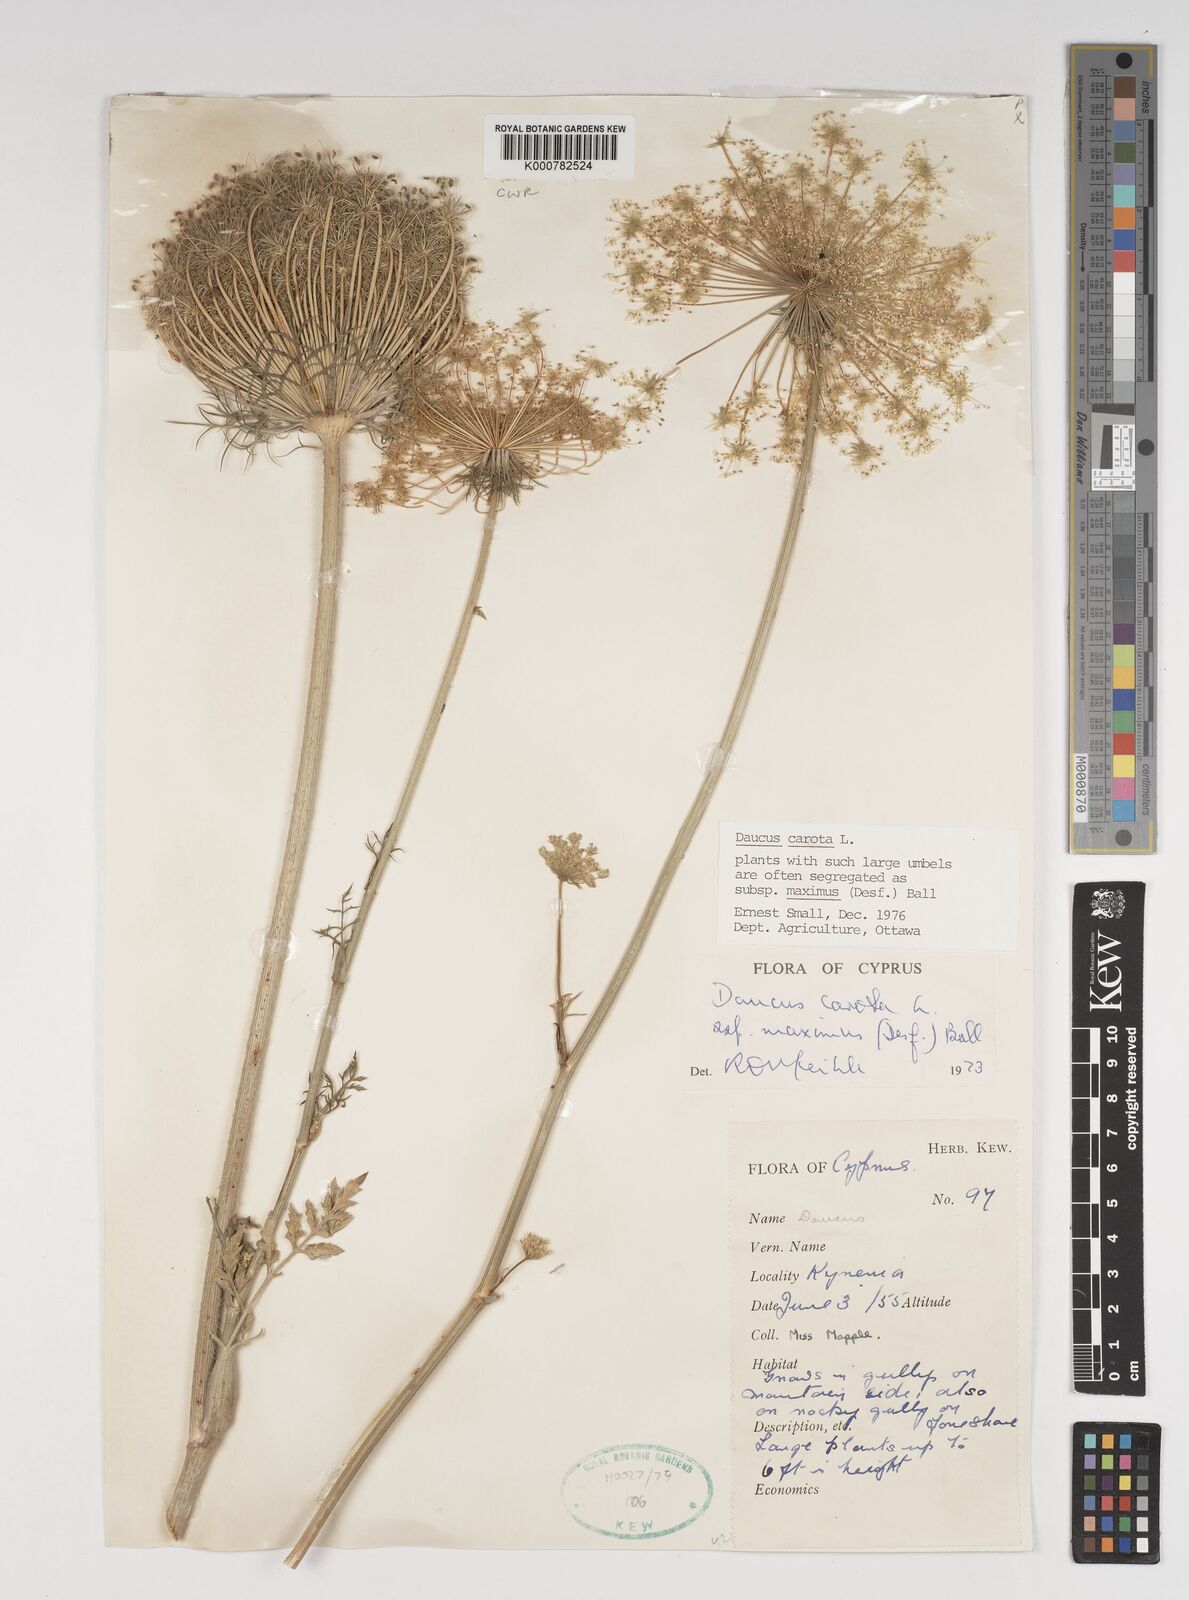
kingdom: Plantae
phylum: Tracheophyta
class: Magnoliopsida
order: Apiales
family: Apiaceae
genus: Daucus
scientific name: Daucus carota
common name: Wild carrot
